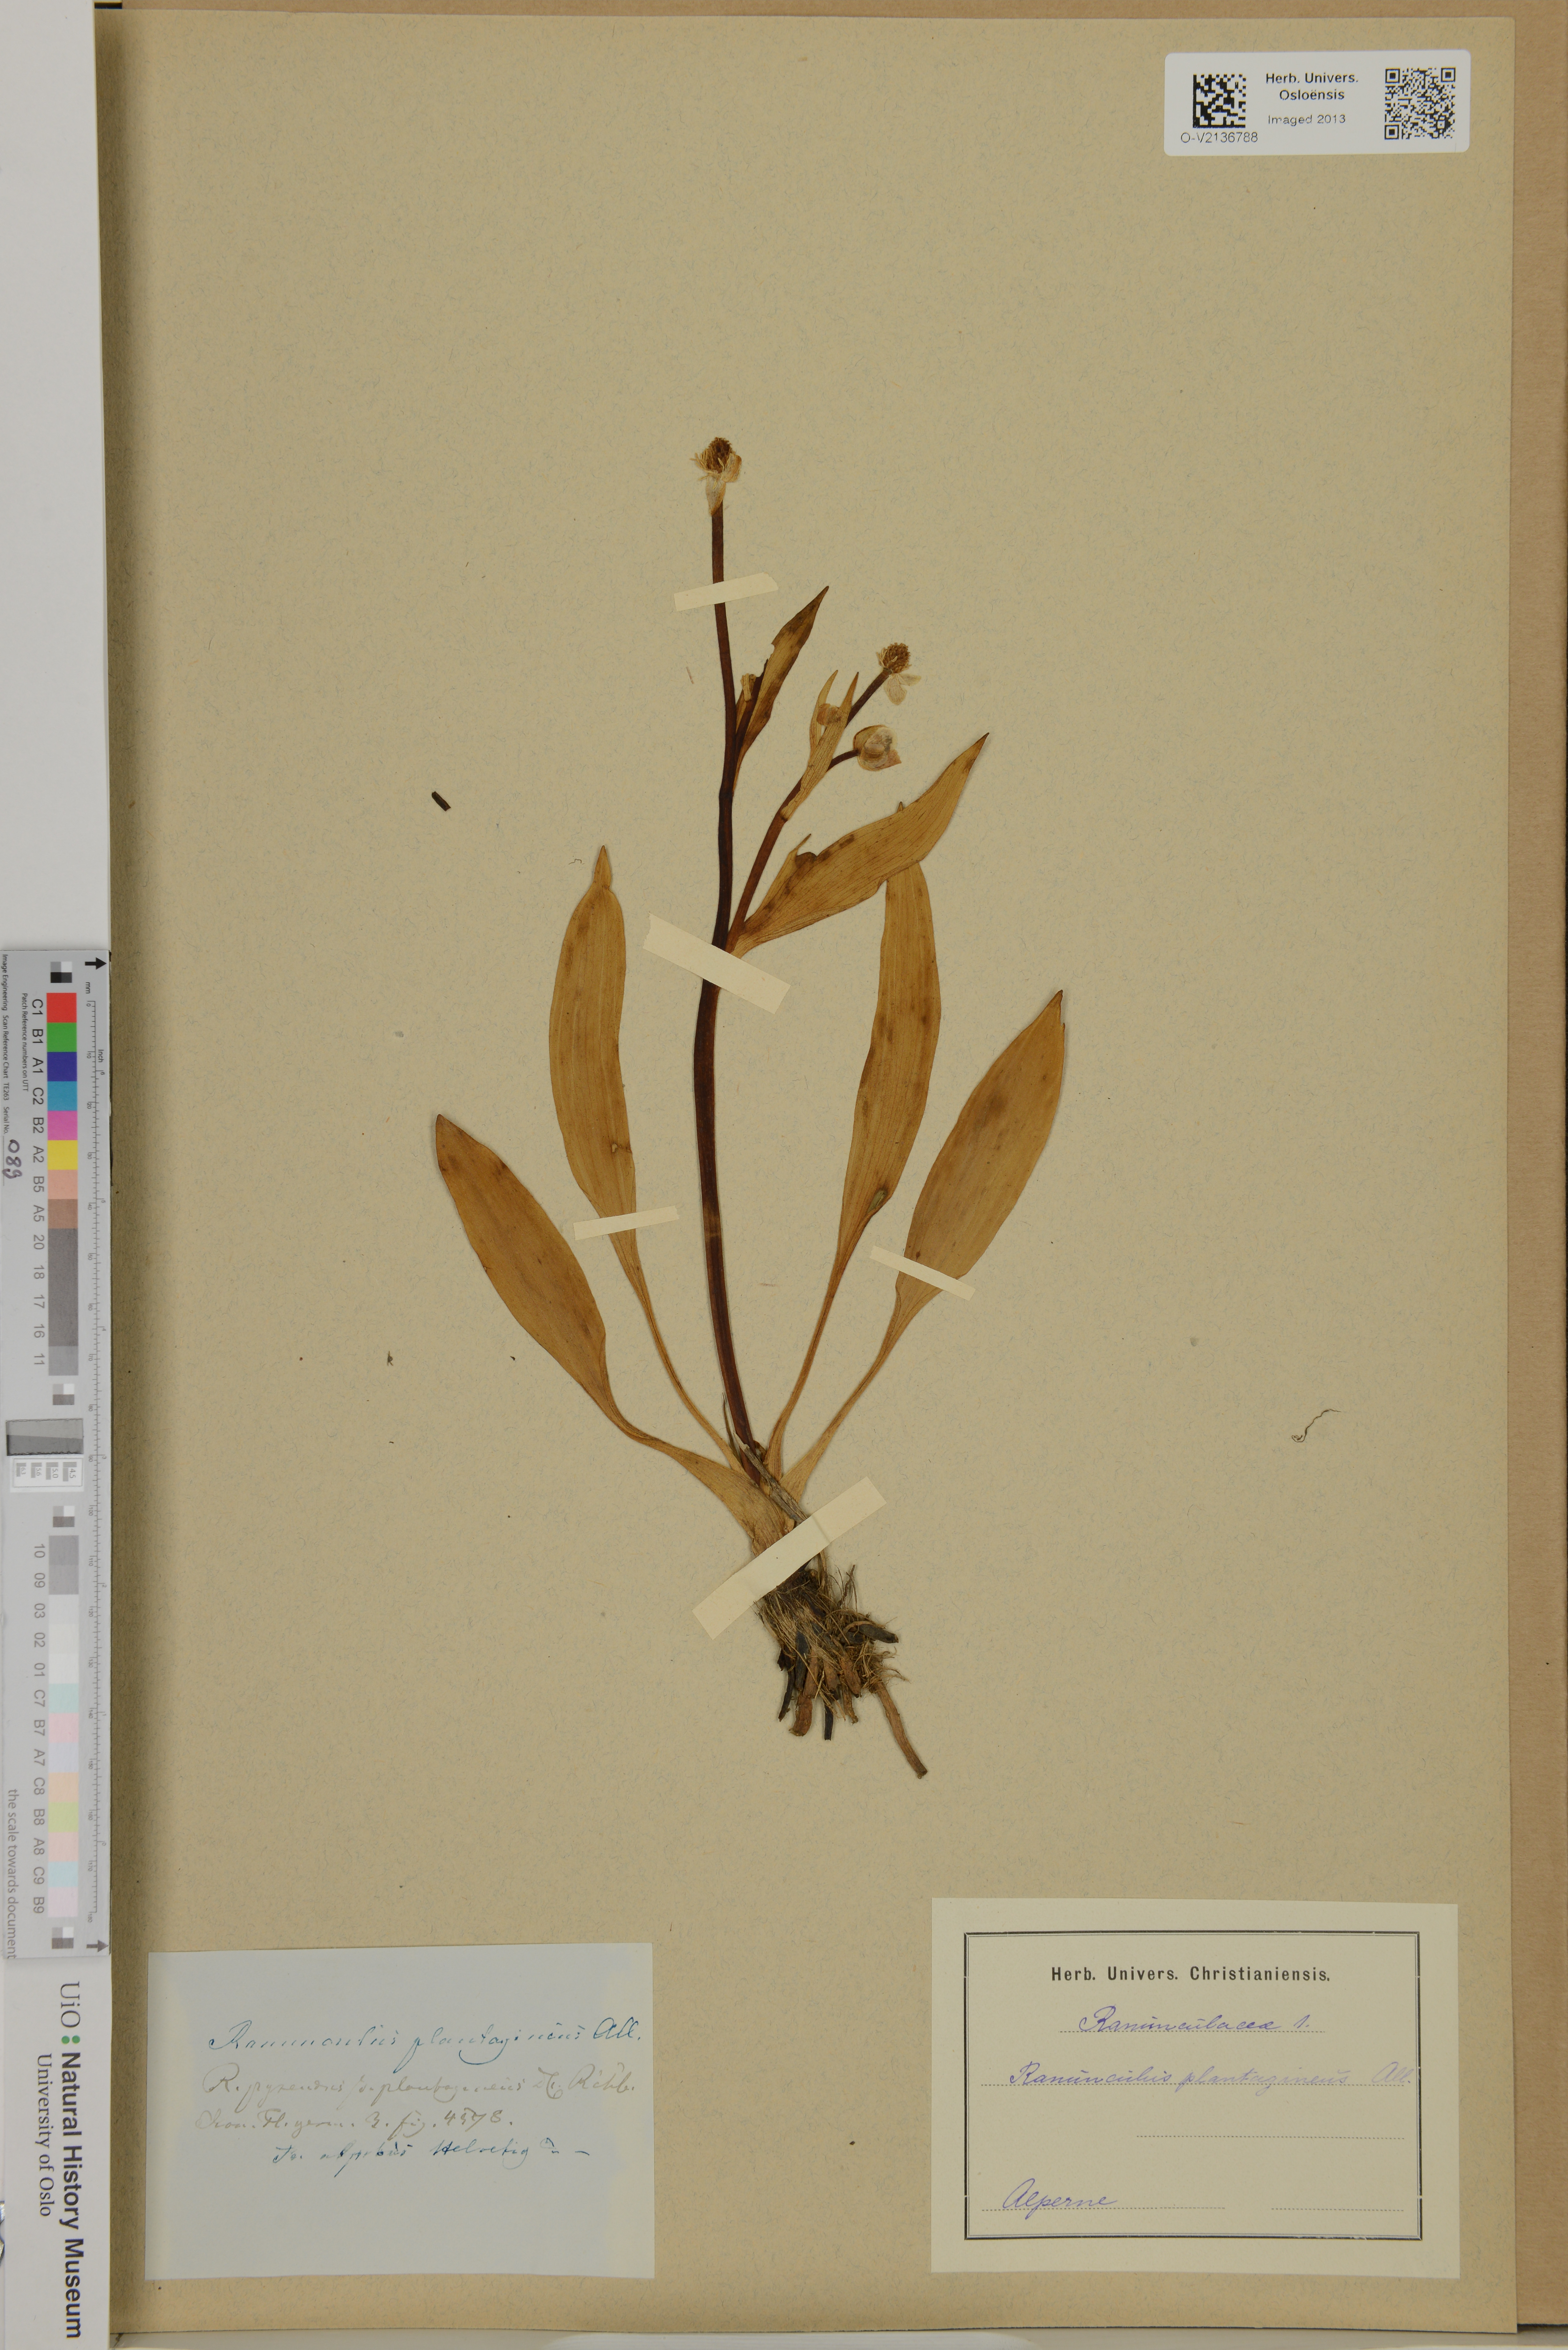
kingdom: Plantae
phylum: Tracheophyta
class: Magnoliopsida
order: Ranunculales
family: Ranunculaceae
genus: Ranunculus
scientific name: Ranunculus
